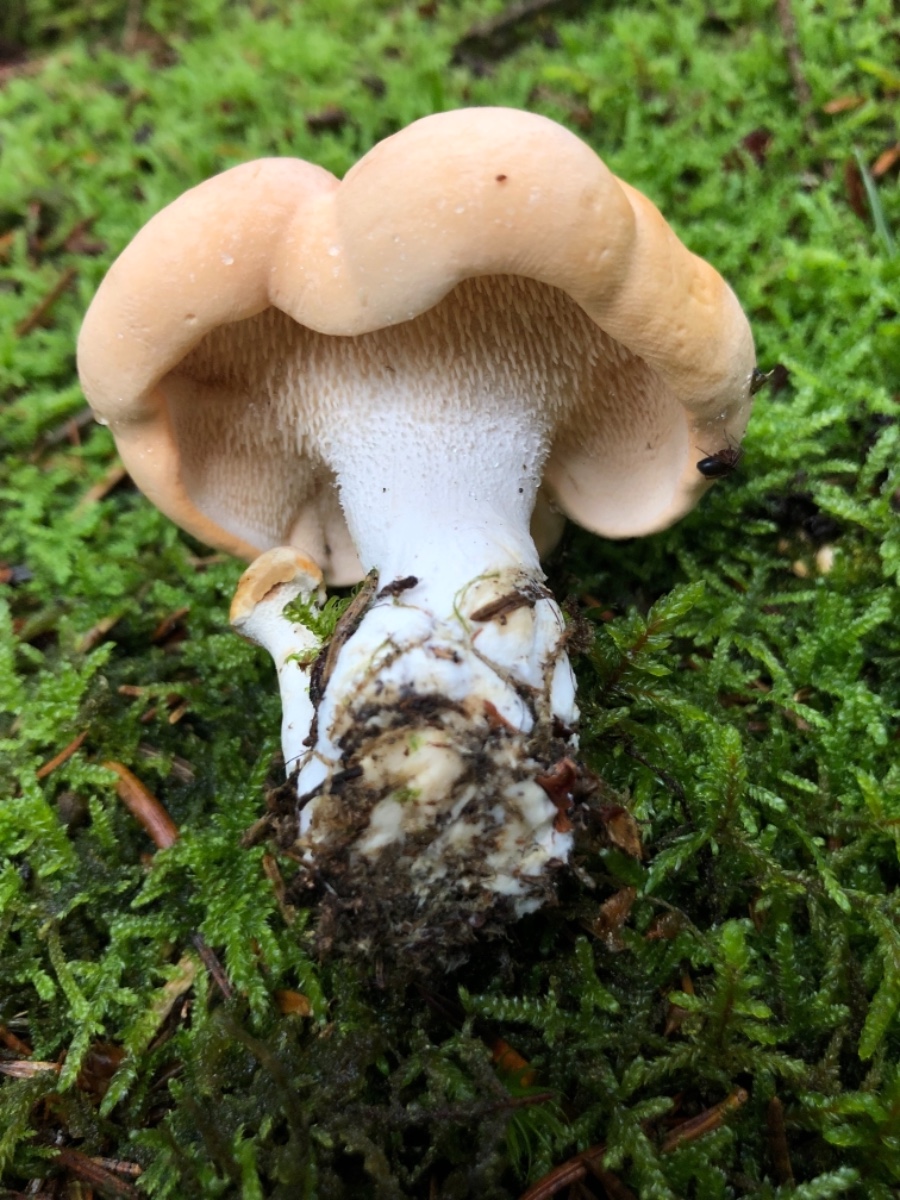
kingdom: Fungi
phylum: Basidiomycota
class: Agaricomycetes
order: Cantharellales
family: Hydnaceae
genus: Hydnum
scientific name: Hydnum repandum
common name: almindelig pigsvamp
